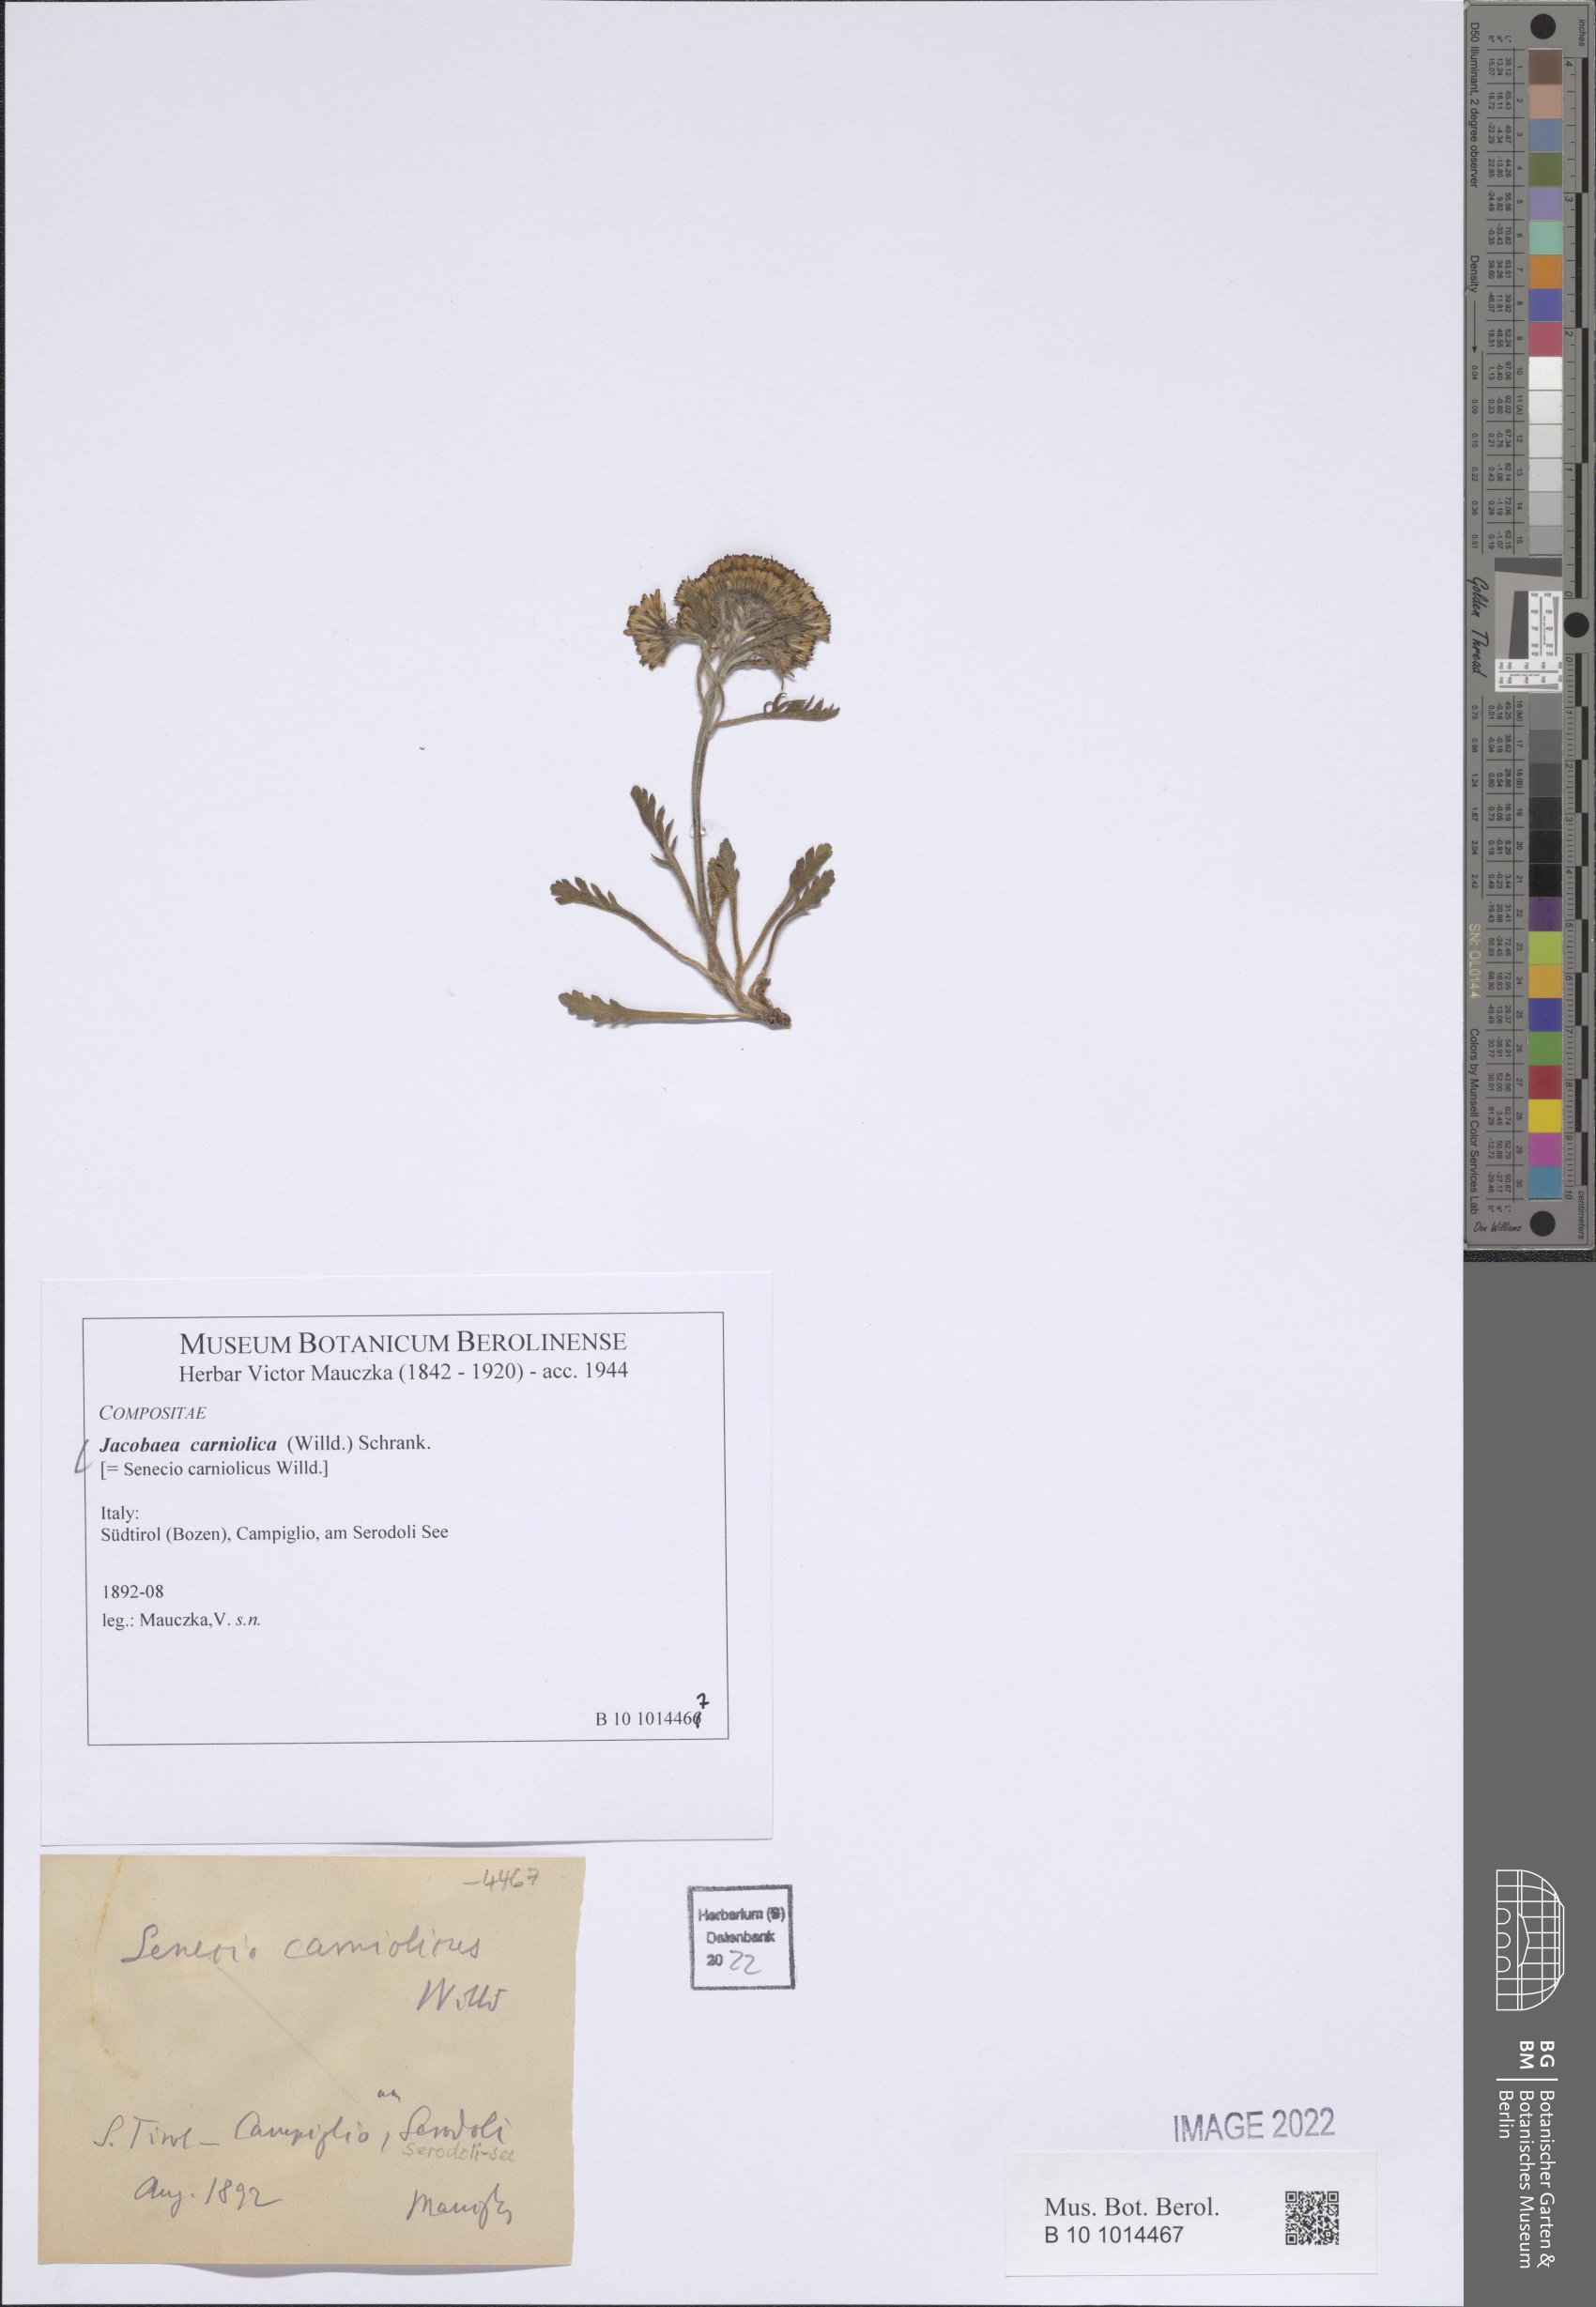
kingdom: Plantae
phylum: Tracheophyta
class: Magnoliopsida
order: Asterales
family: Asteraceae
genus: Jacobaea
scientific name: Jacobaea carniolica
